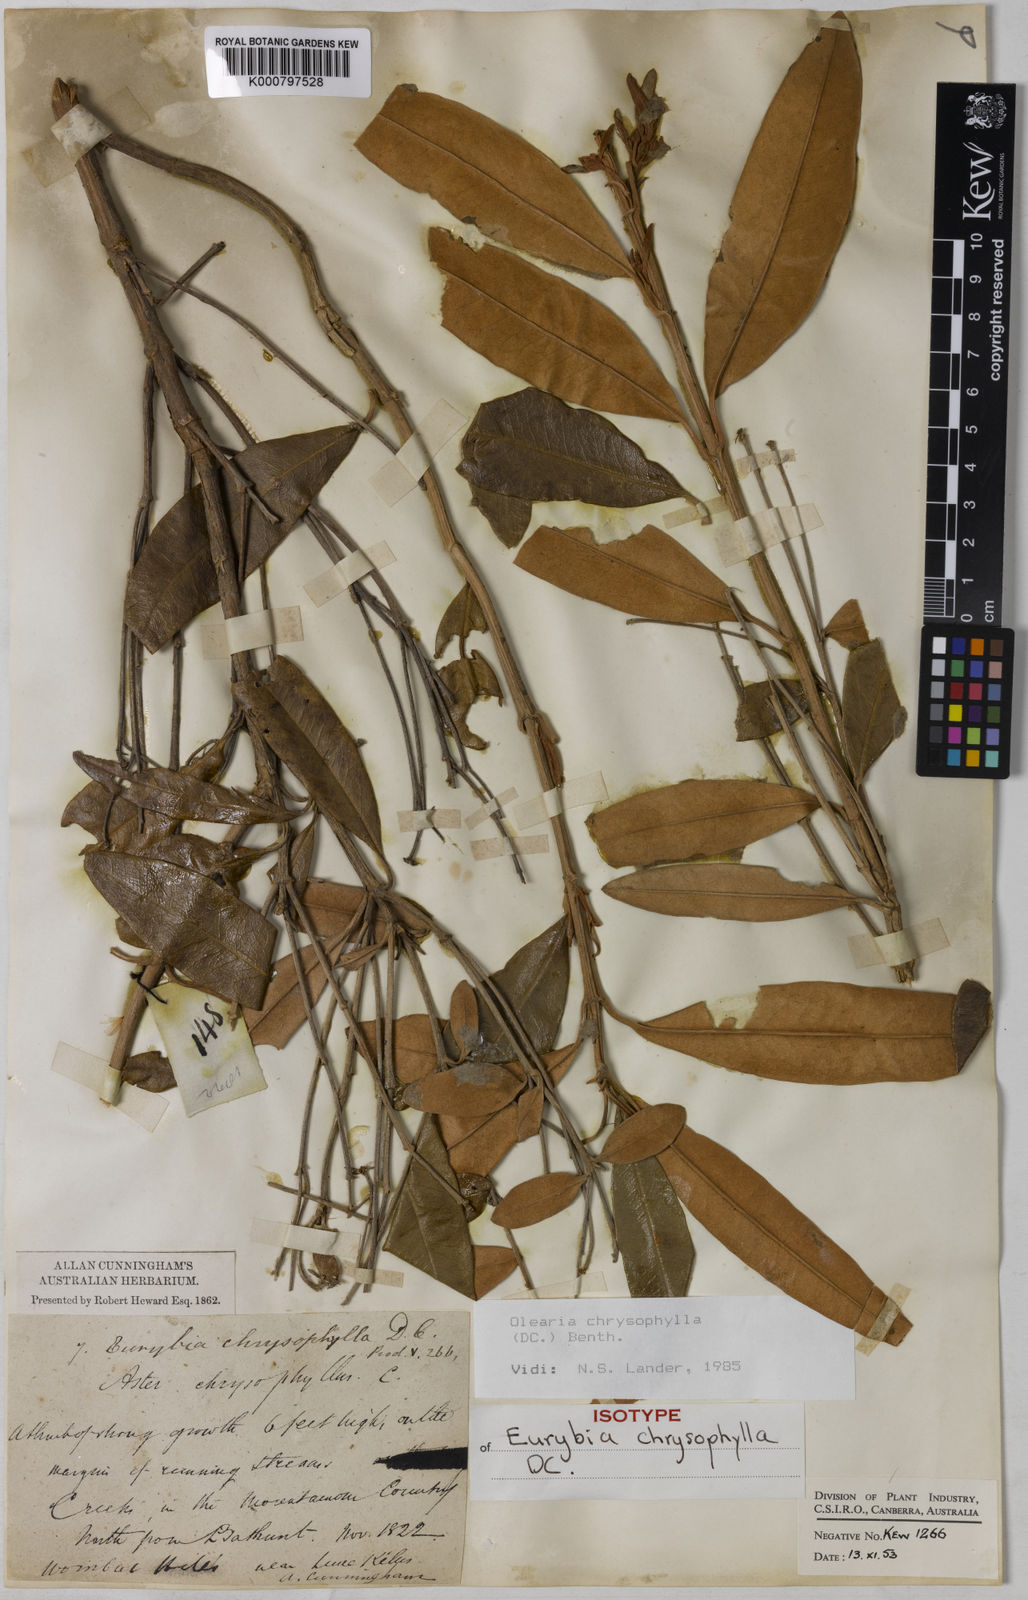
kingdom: Plantae
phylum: Tracheophyta
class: Magnoliopsida
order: Asterales
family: Asteraceae
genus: Olearia
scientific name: Olearia chrysophylla
